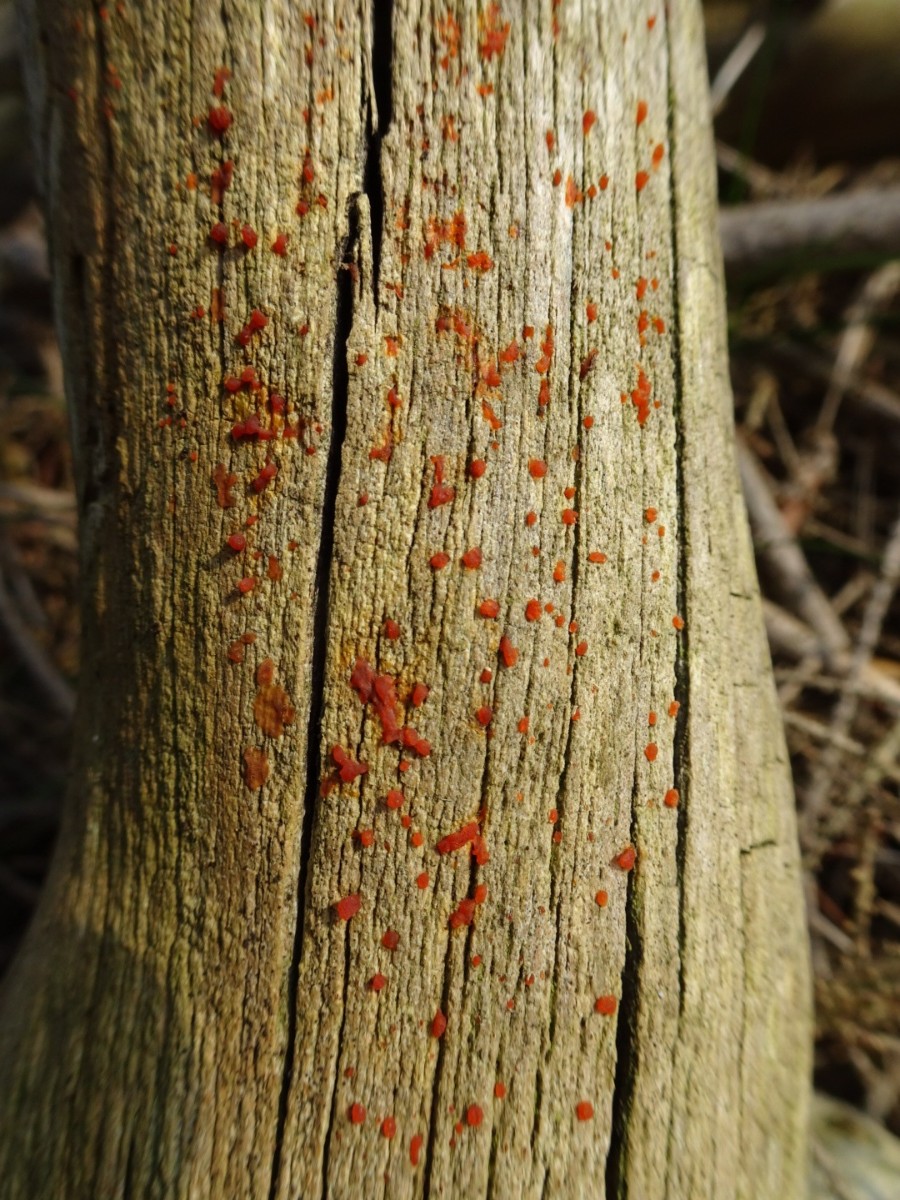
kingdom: Fungi
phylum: Basidiomycota
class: Dacrymycetes
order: Dacrymycetales
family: Dacrymycetaceae
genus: Dacrymyces
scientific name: Dacrymyces stillatus
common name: almindelig tåresvamp
